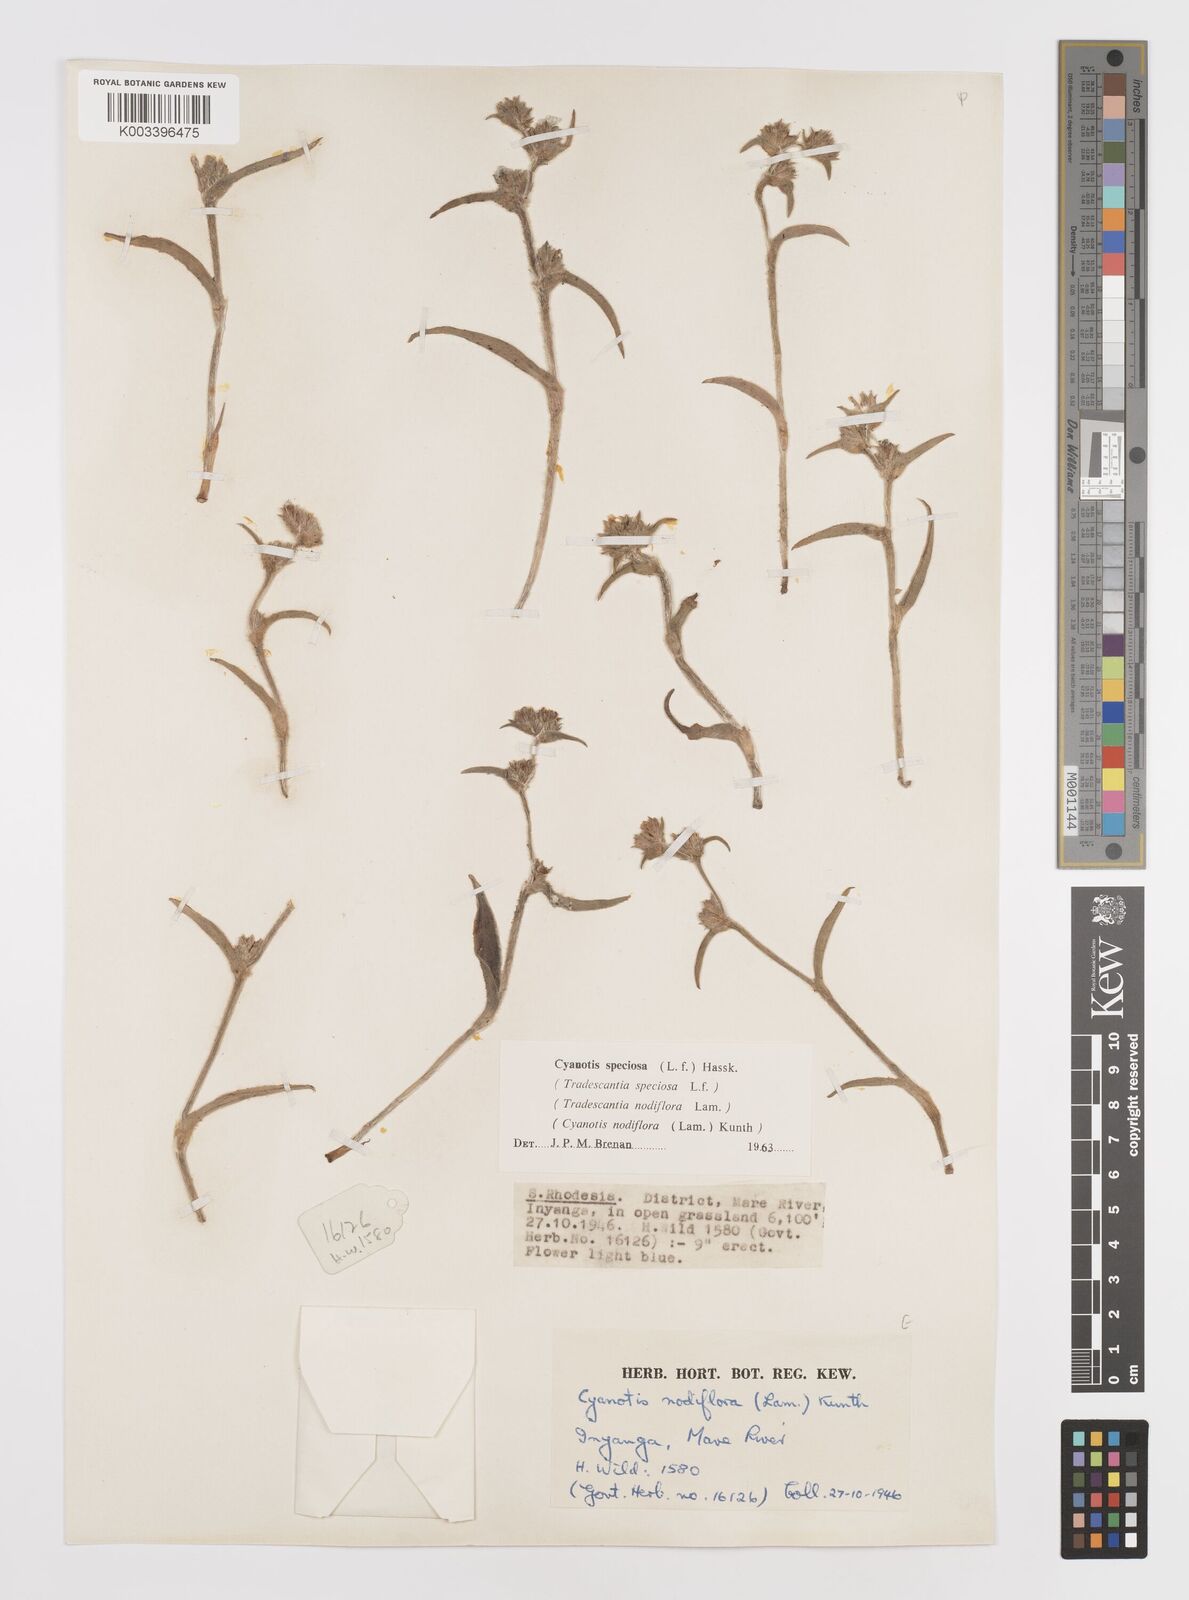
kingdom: Plantae
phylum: Tracheophyta
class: Liliopsida
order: Commelinales
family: Commelinaceae
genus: Cyanotis
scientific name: Cyanotis speciosa
